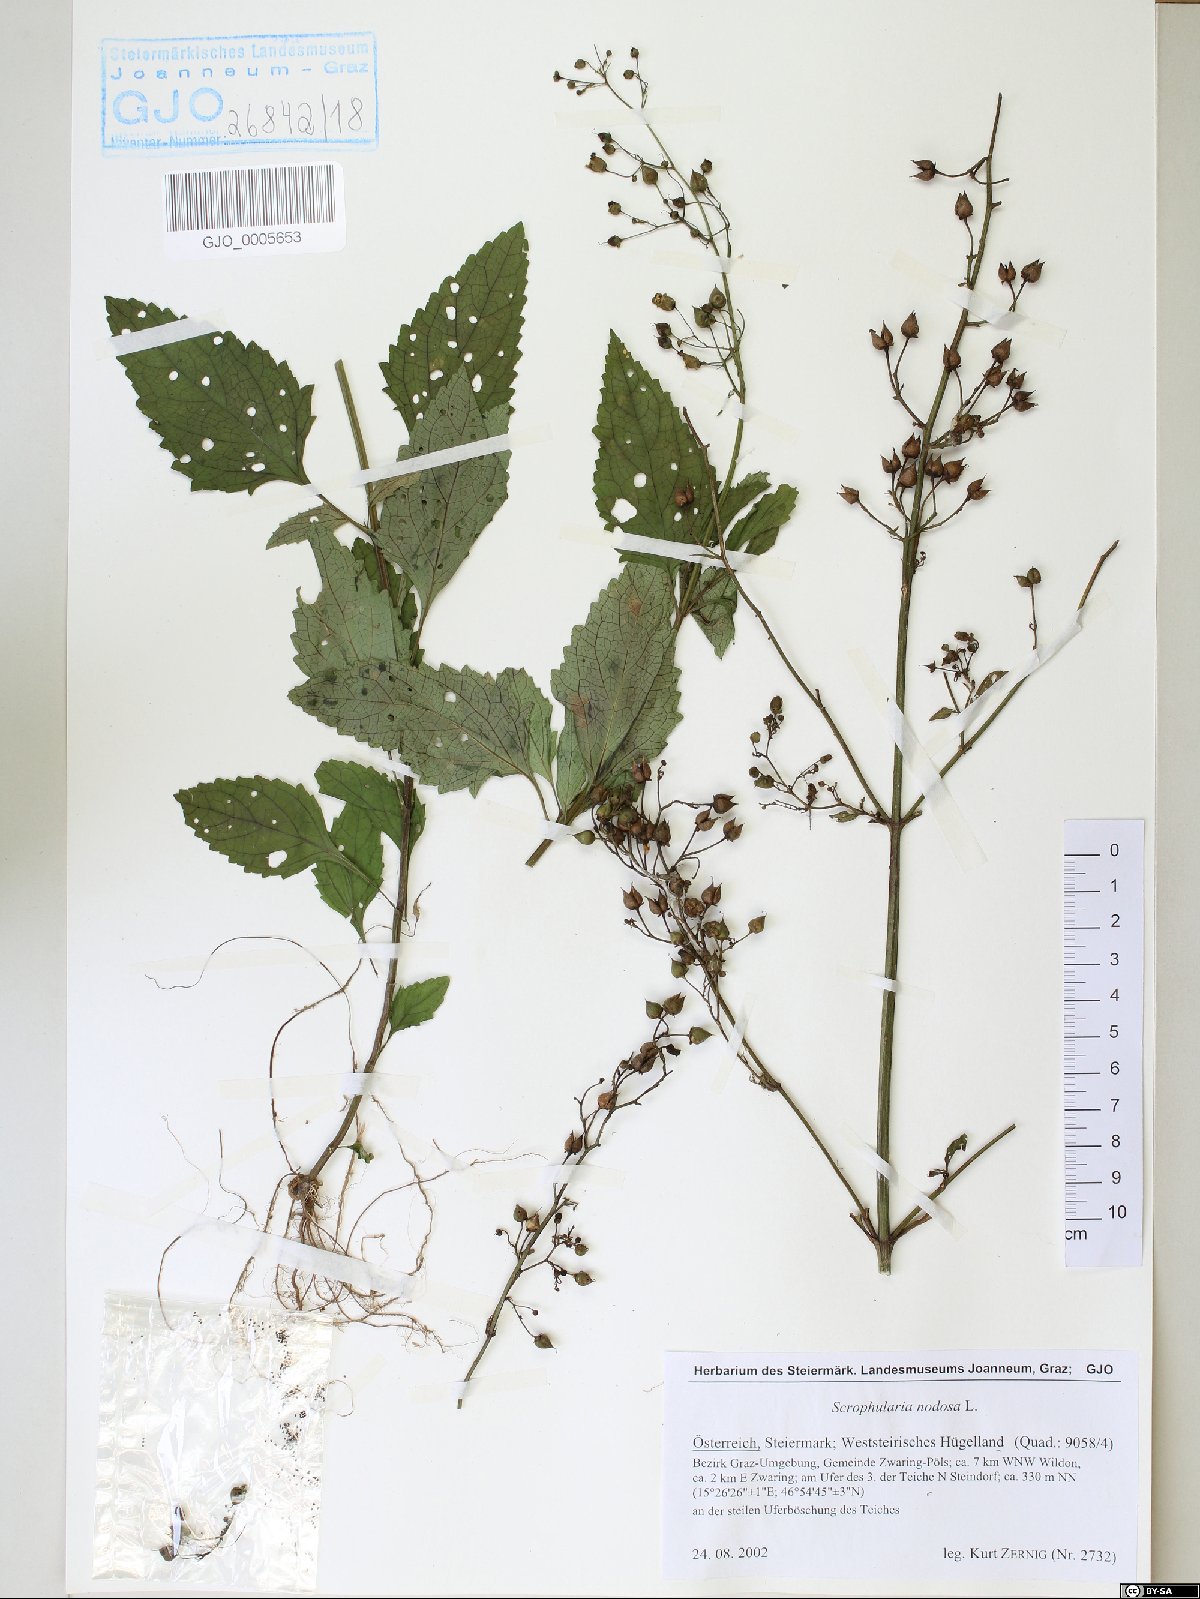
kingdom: Plantae
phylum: Tracheophyta
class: Magnoliopsida
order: Lamiales
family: Scrophulariaceae
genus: Scrophularia
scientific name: Scrophularia nodosa
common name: Common figwort
